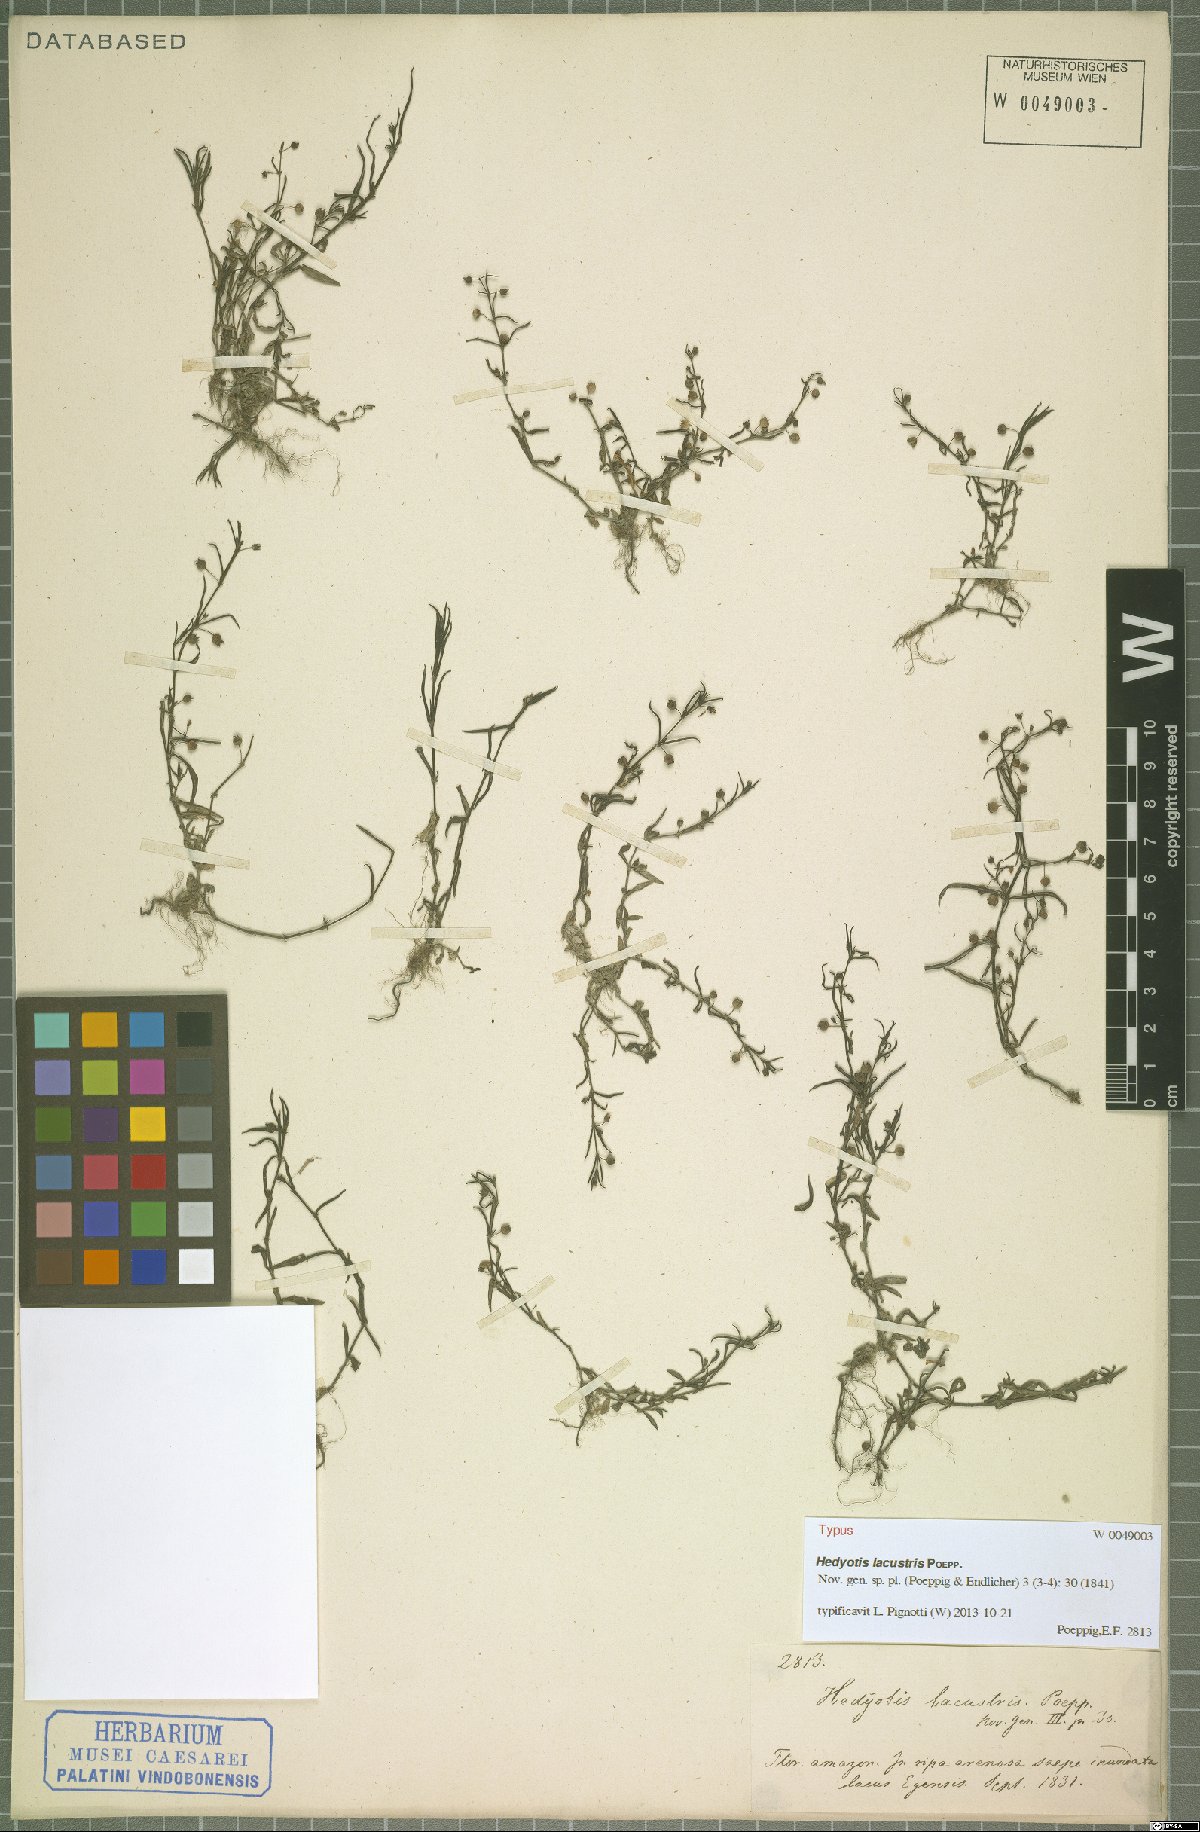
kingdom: Plantae
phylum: Tracheophyta
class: Magnoliopsida
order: Gentianales
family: Rubiaceae
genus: Hedyotis
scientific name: Hedyotis lacustris
